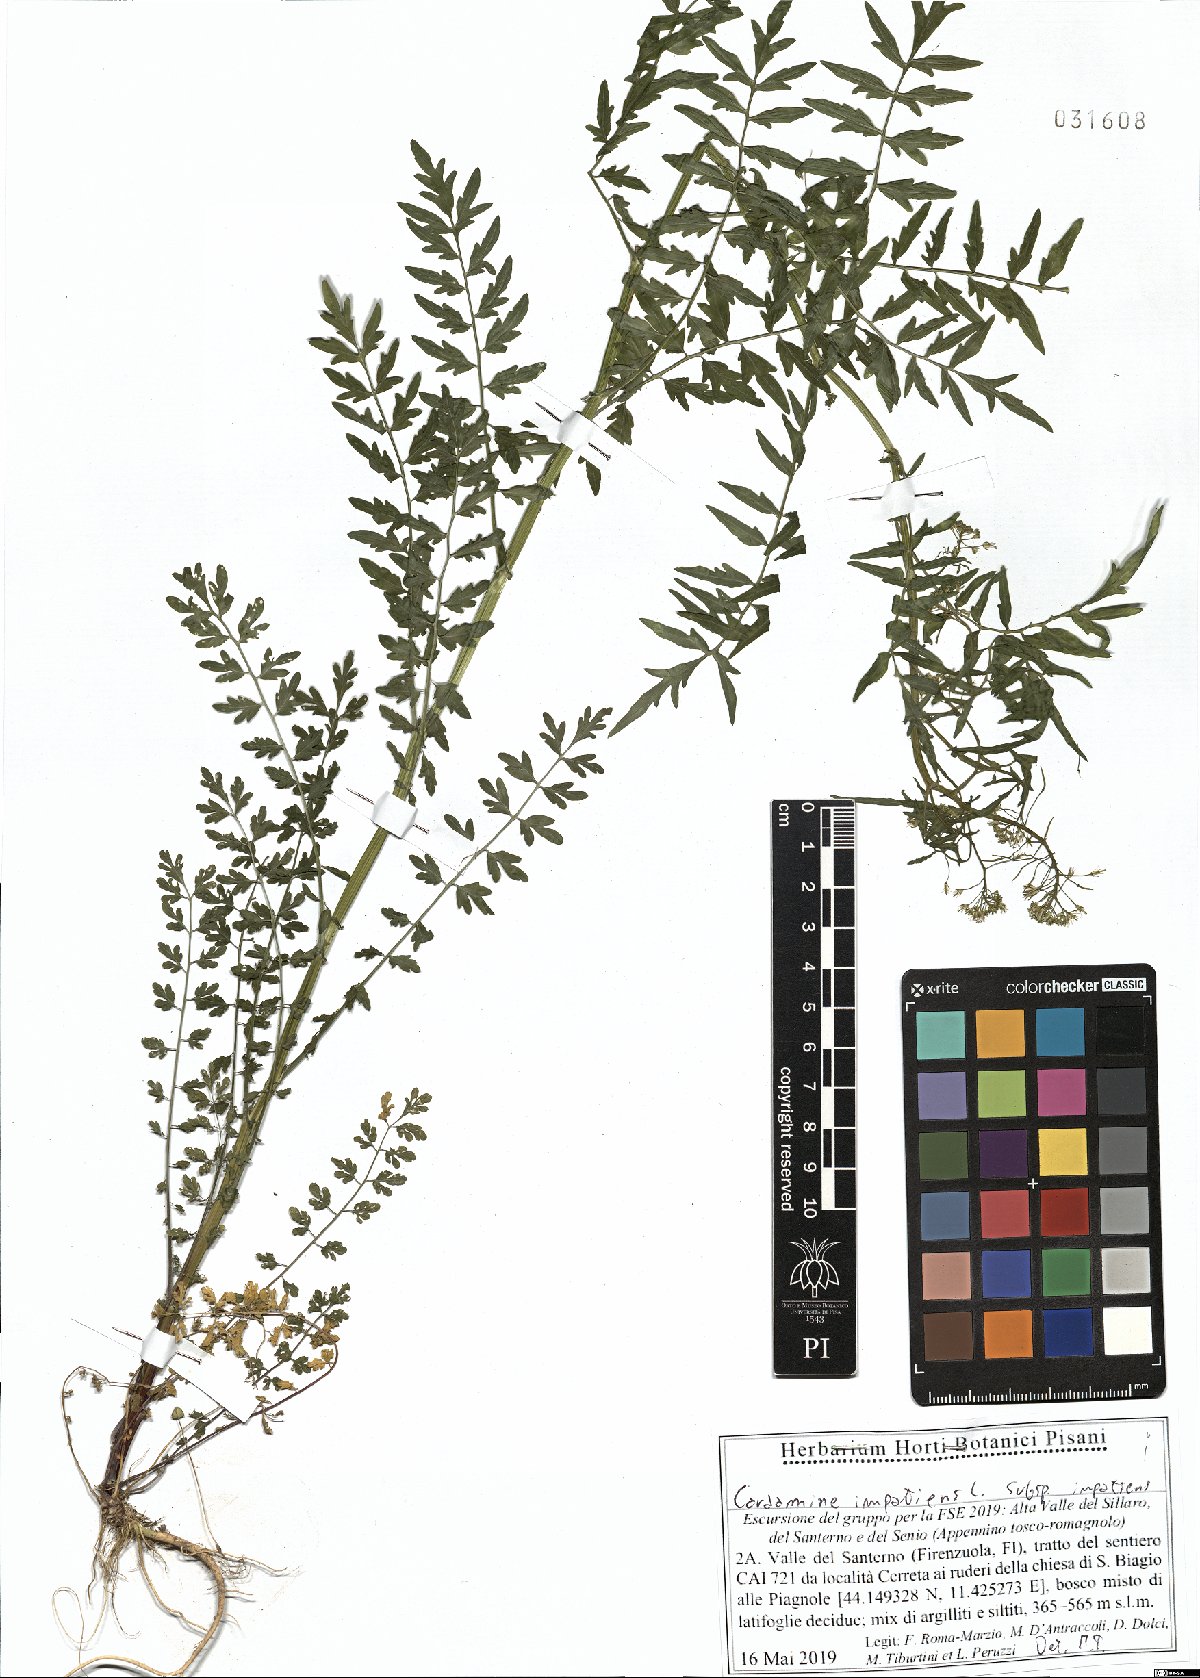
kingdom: Plantae
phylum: Tracheophyta
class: Magnoliopsida
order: Brassicales
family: Brassicaceae
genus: Cardamine
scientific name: Cardamine impatiens
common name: Narrow-leaved bitter-cress
